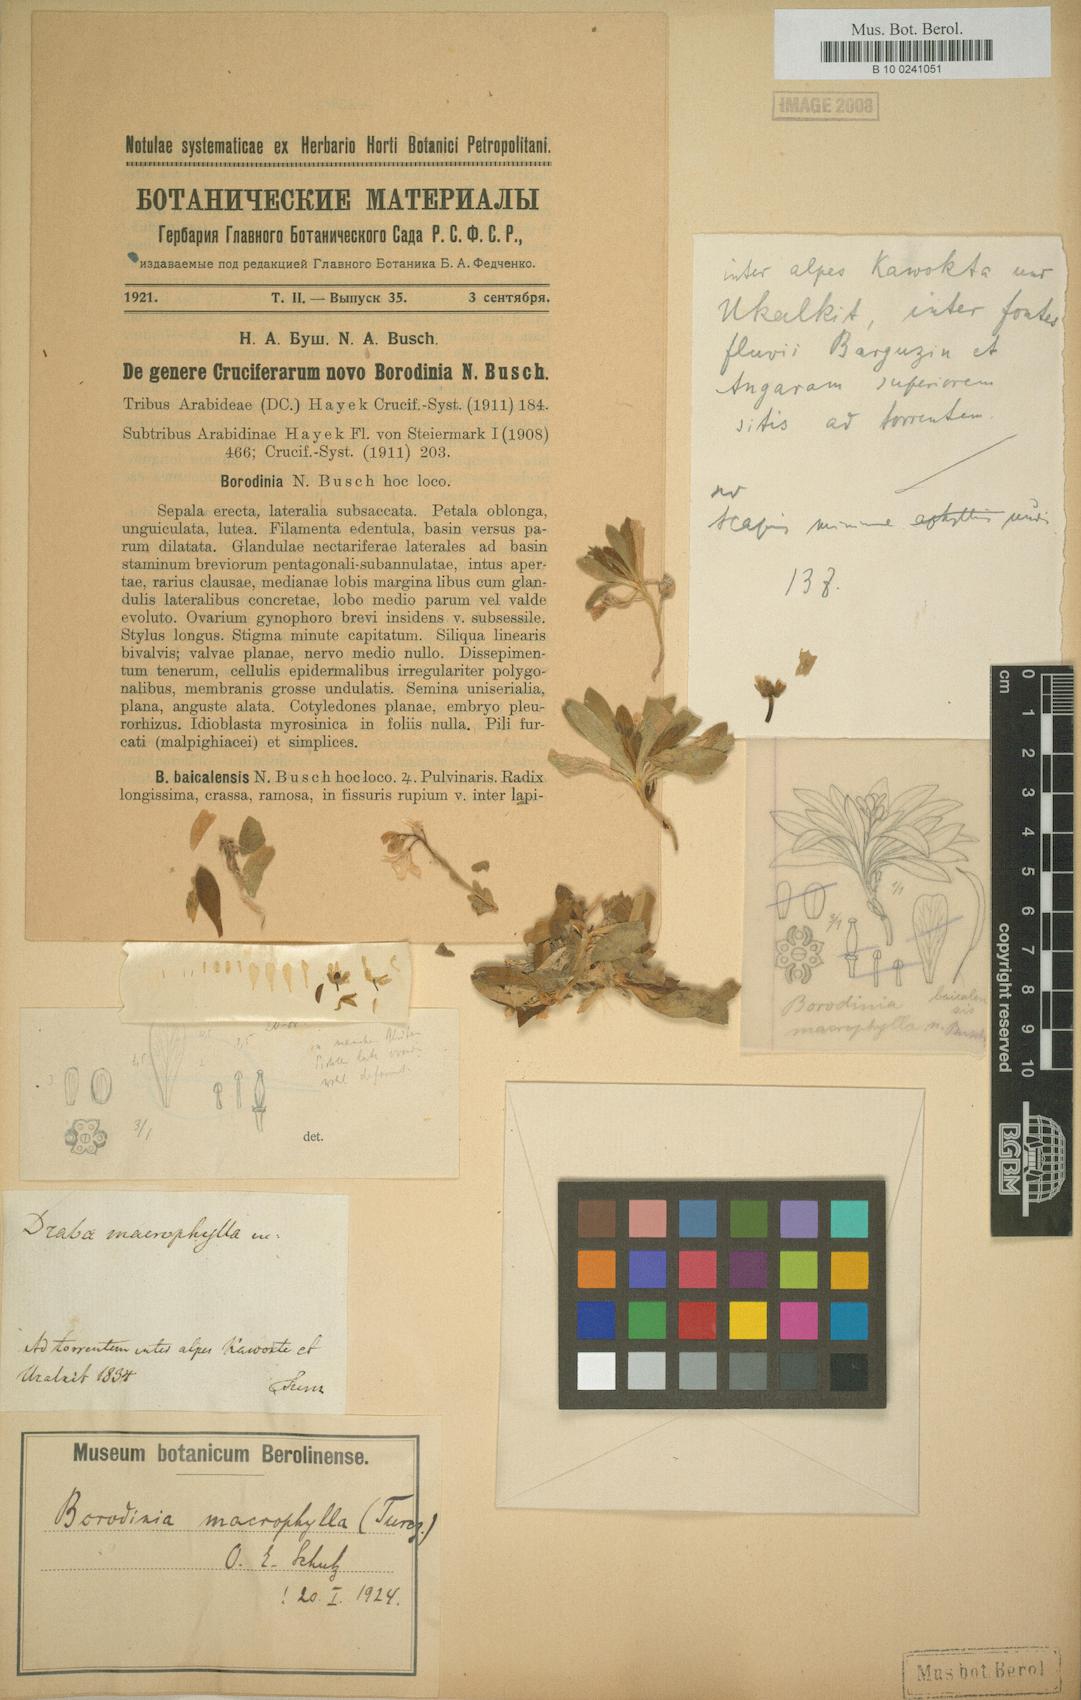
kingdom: Plantae
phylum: Tracheophyta
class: Magnoliopsida
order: Brassicales
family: Brassicaceae
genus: Borodinia
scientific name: Borodinia macrophylla
